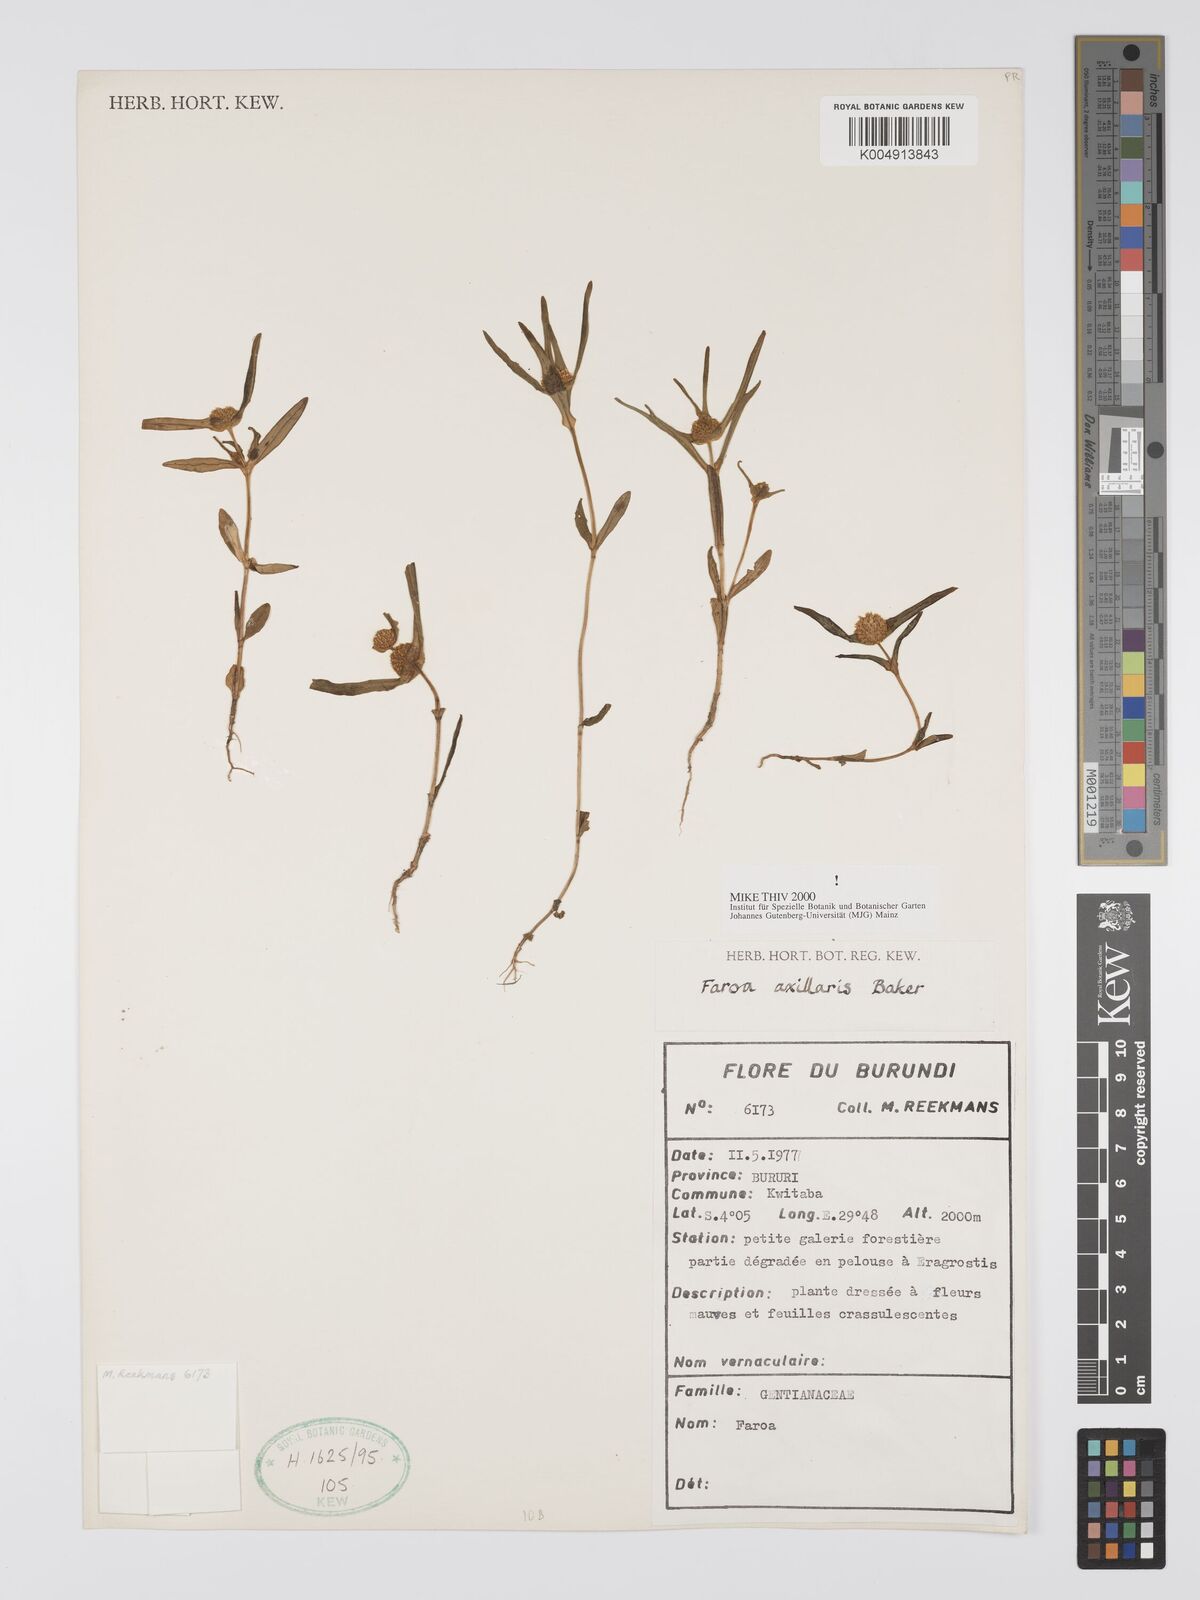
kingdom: Plantae
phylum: Tracheophyta
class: Magnoliopsida
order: Gentianales
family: Gentianaceae
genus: Faroa
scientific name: Faroa axillaris
